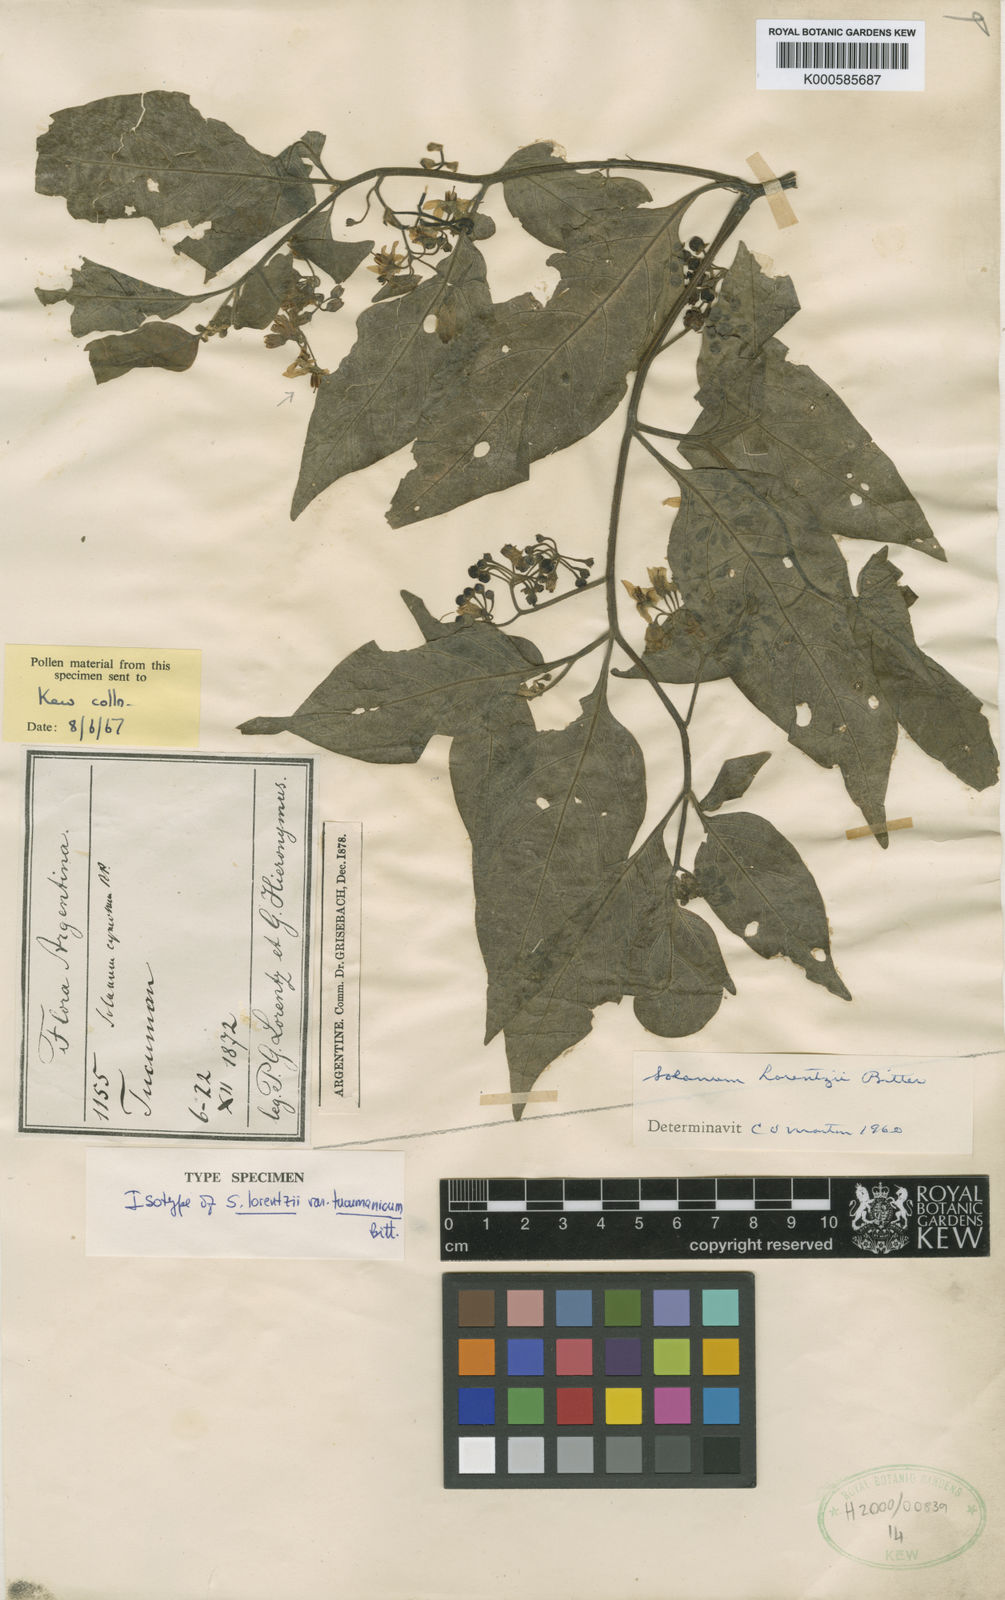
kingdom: Plantae
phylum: Tracheophyta
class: Magnoliopsida
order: Solanales
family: Solanaceae
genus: Solanum
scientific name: Solanum cochabambense
